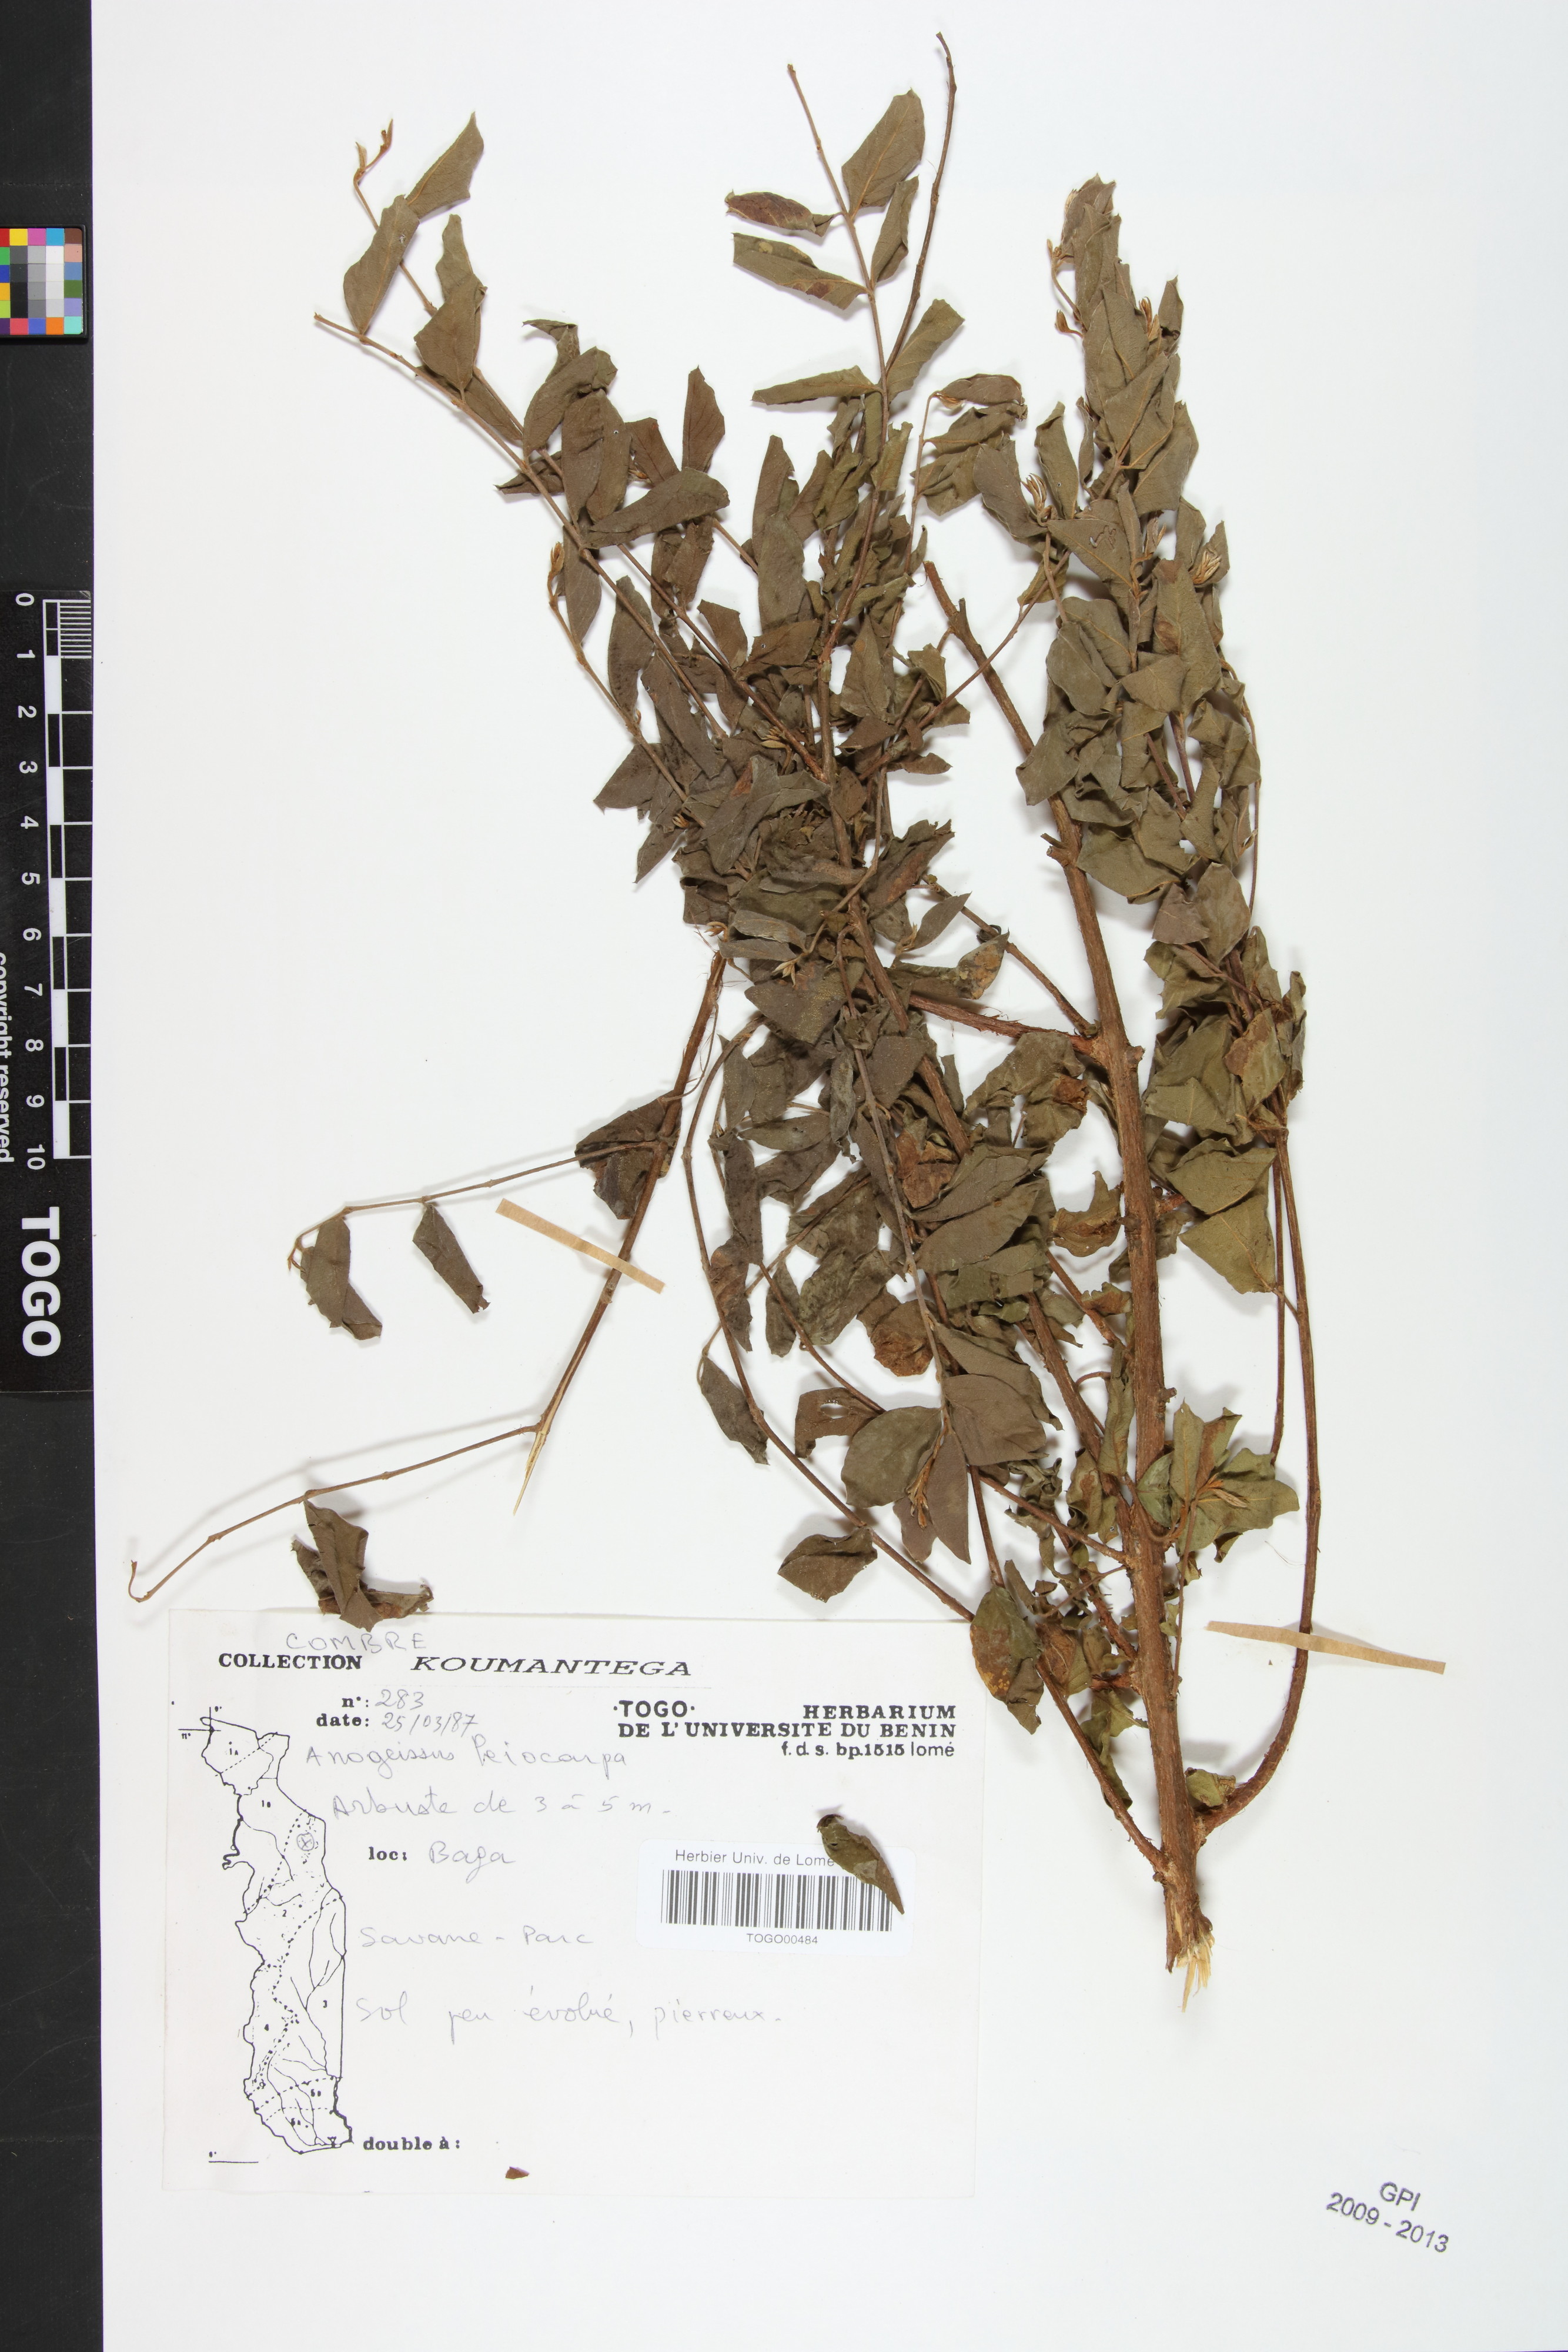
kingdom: Plantae
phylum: Tracheophyta
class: Magnoliopsida
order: Myrtales
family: Combretaceae
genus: Terminalia
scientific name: Terminalia leiocarpa
